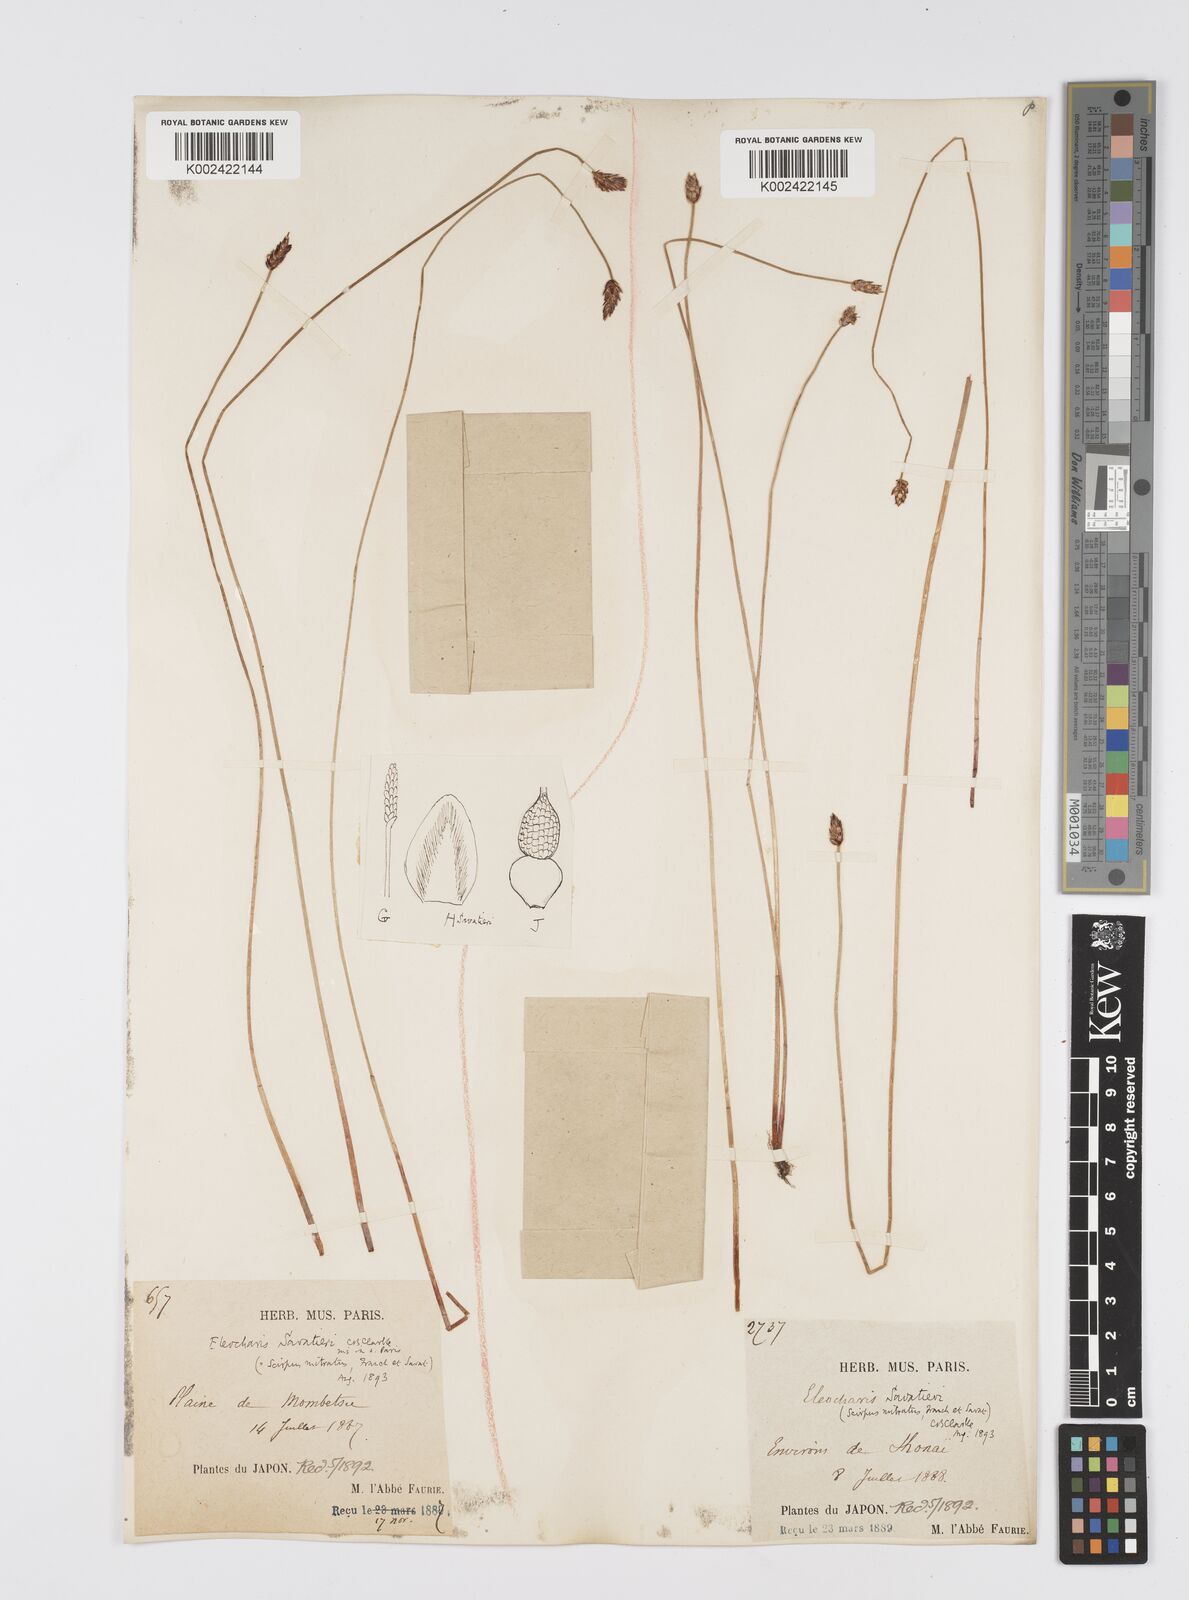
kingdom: Plantae
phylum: Tracheophyta
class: Liliopsida
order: Poales
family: Cyperaceae
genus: Eleocharis
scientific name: Eleocharis kamtschatica
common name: Kamchatka spikerush
